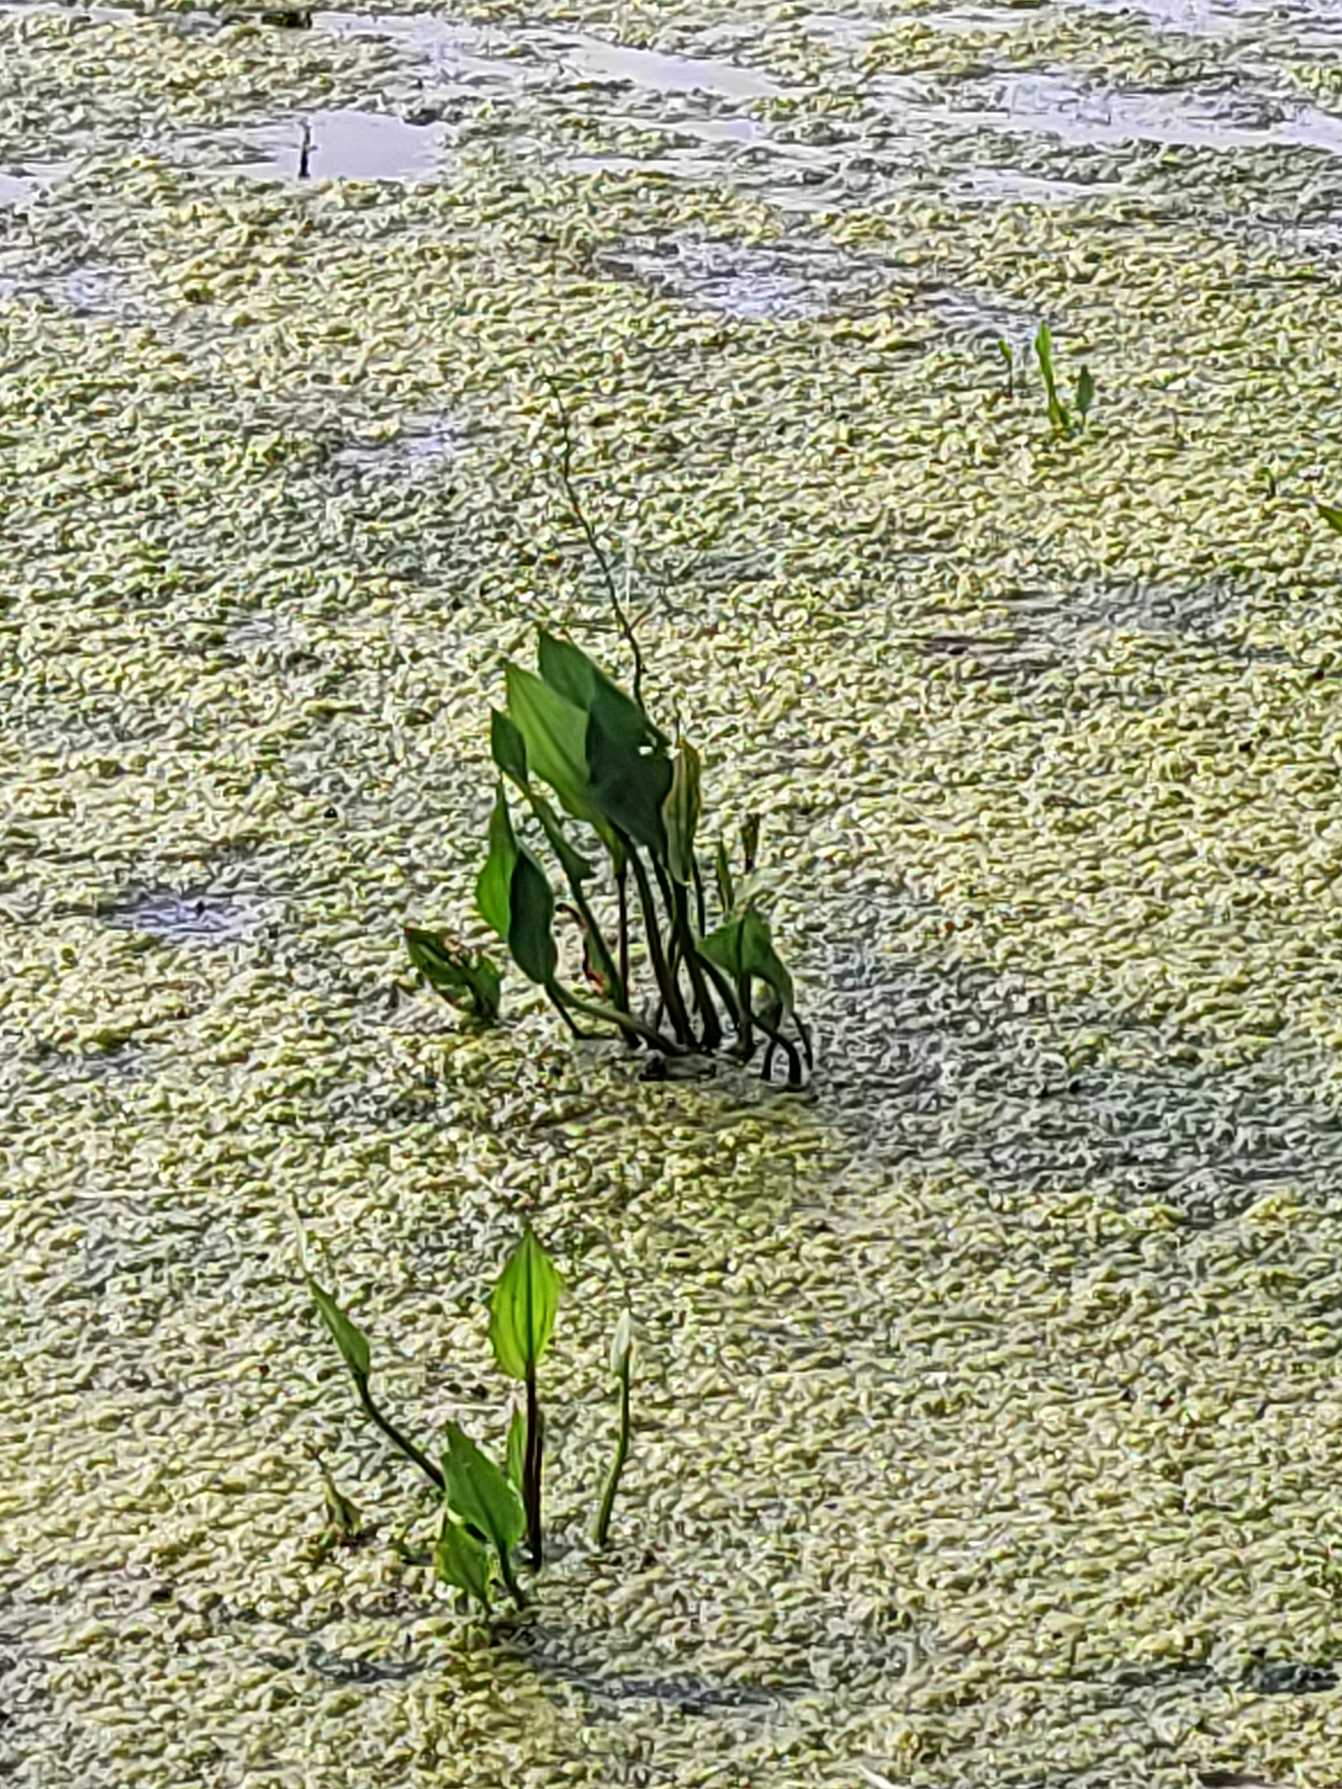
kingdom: Plantae
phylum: Tracheophyta
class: Liliopsida
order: Alismatales
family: Alismataceae
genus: Alisma
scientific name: Alisma plantago-aquatica
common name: Vejbred-skeblad
